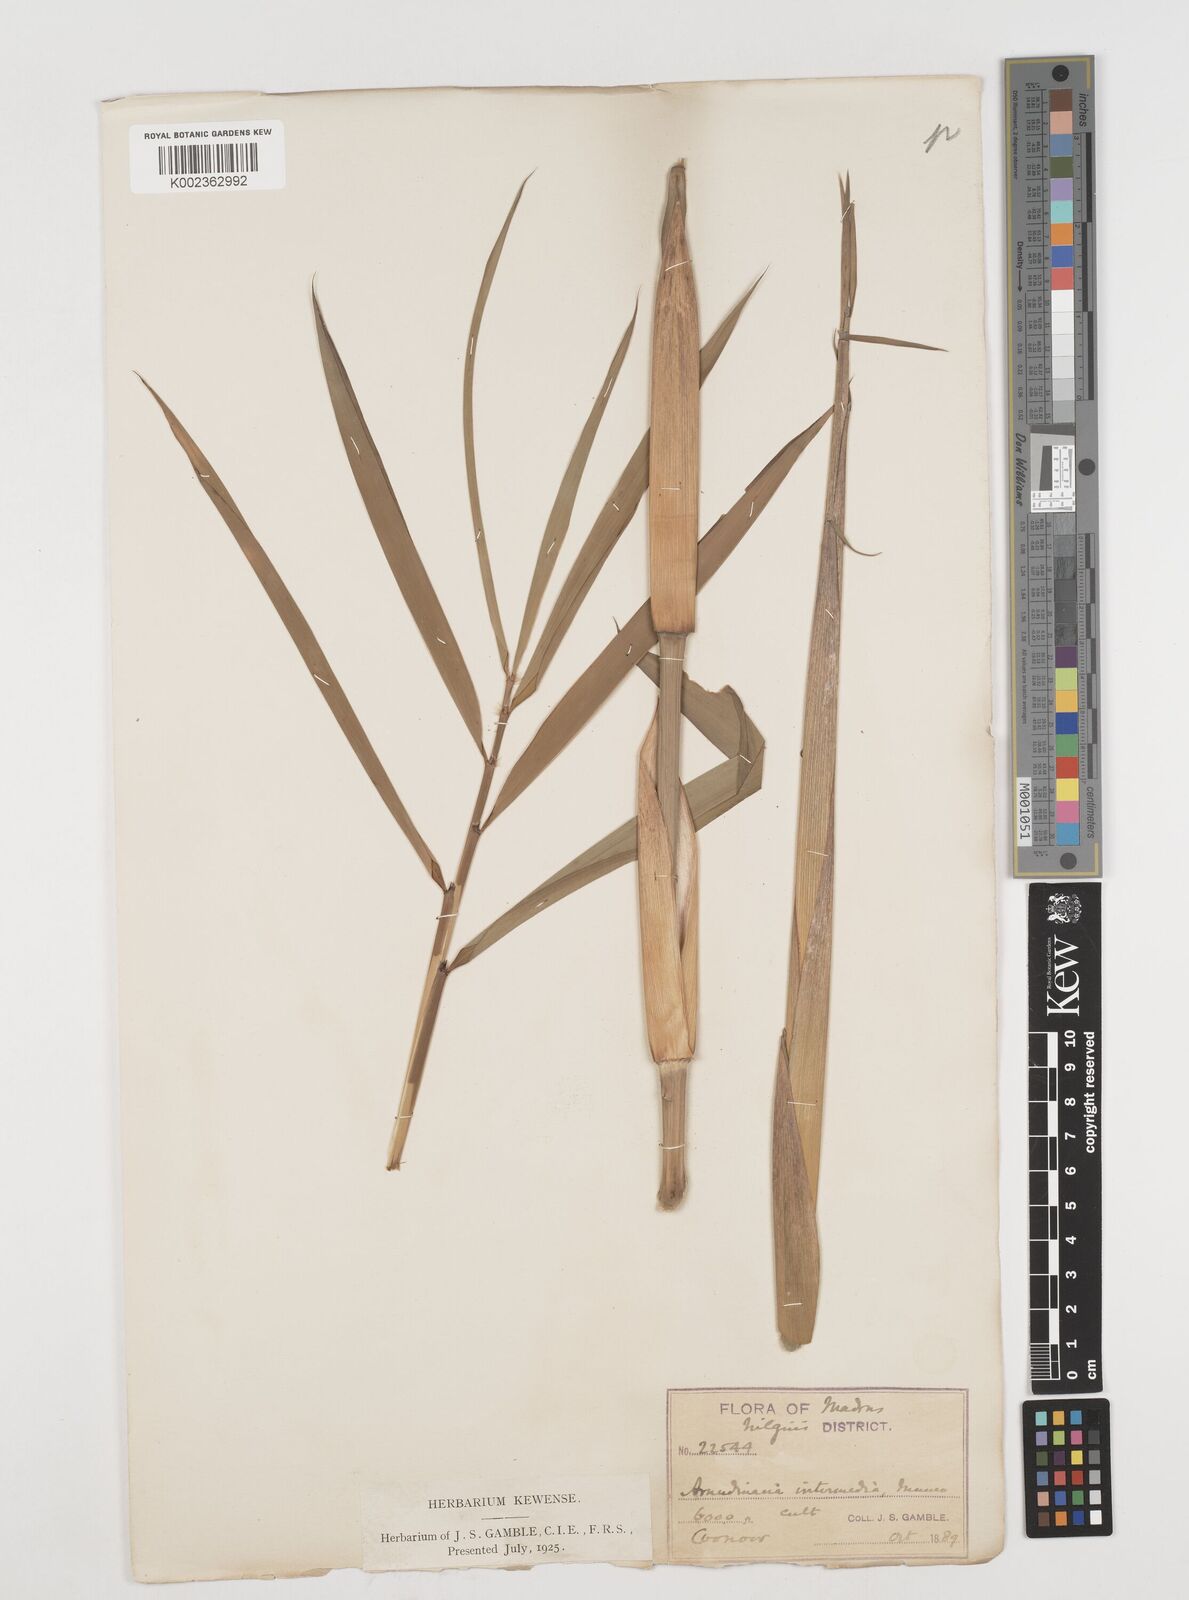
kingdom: Plantae
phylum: Tracheophyta
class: Liliopsida
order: Poales
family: Poaceae
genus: Drepanostachyum
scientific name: Drepanostachyum intermedium
